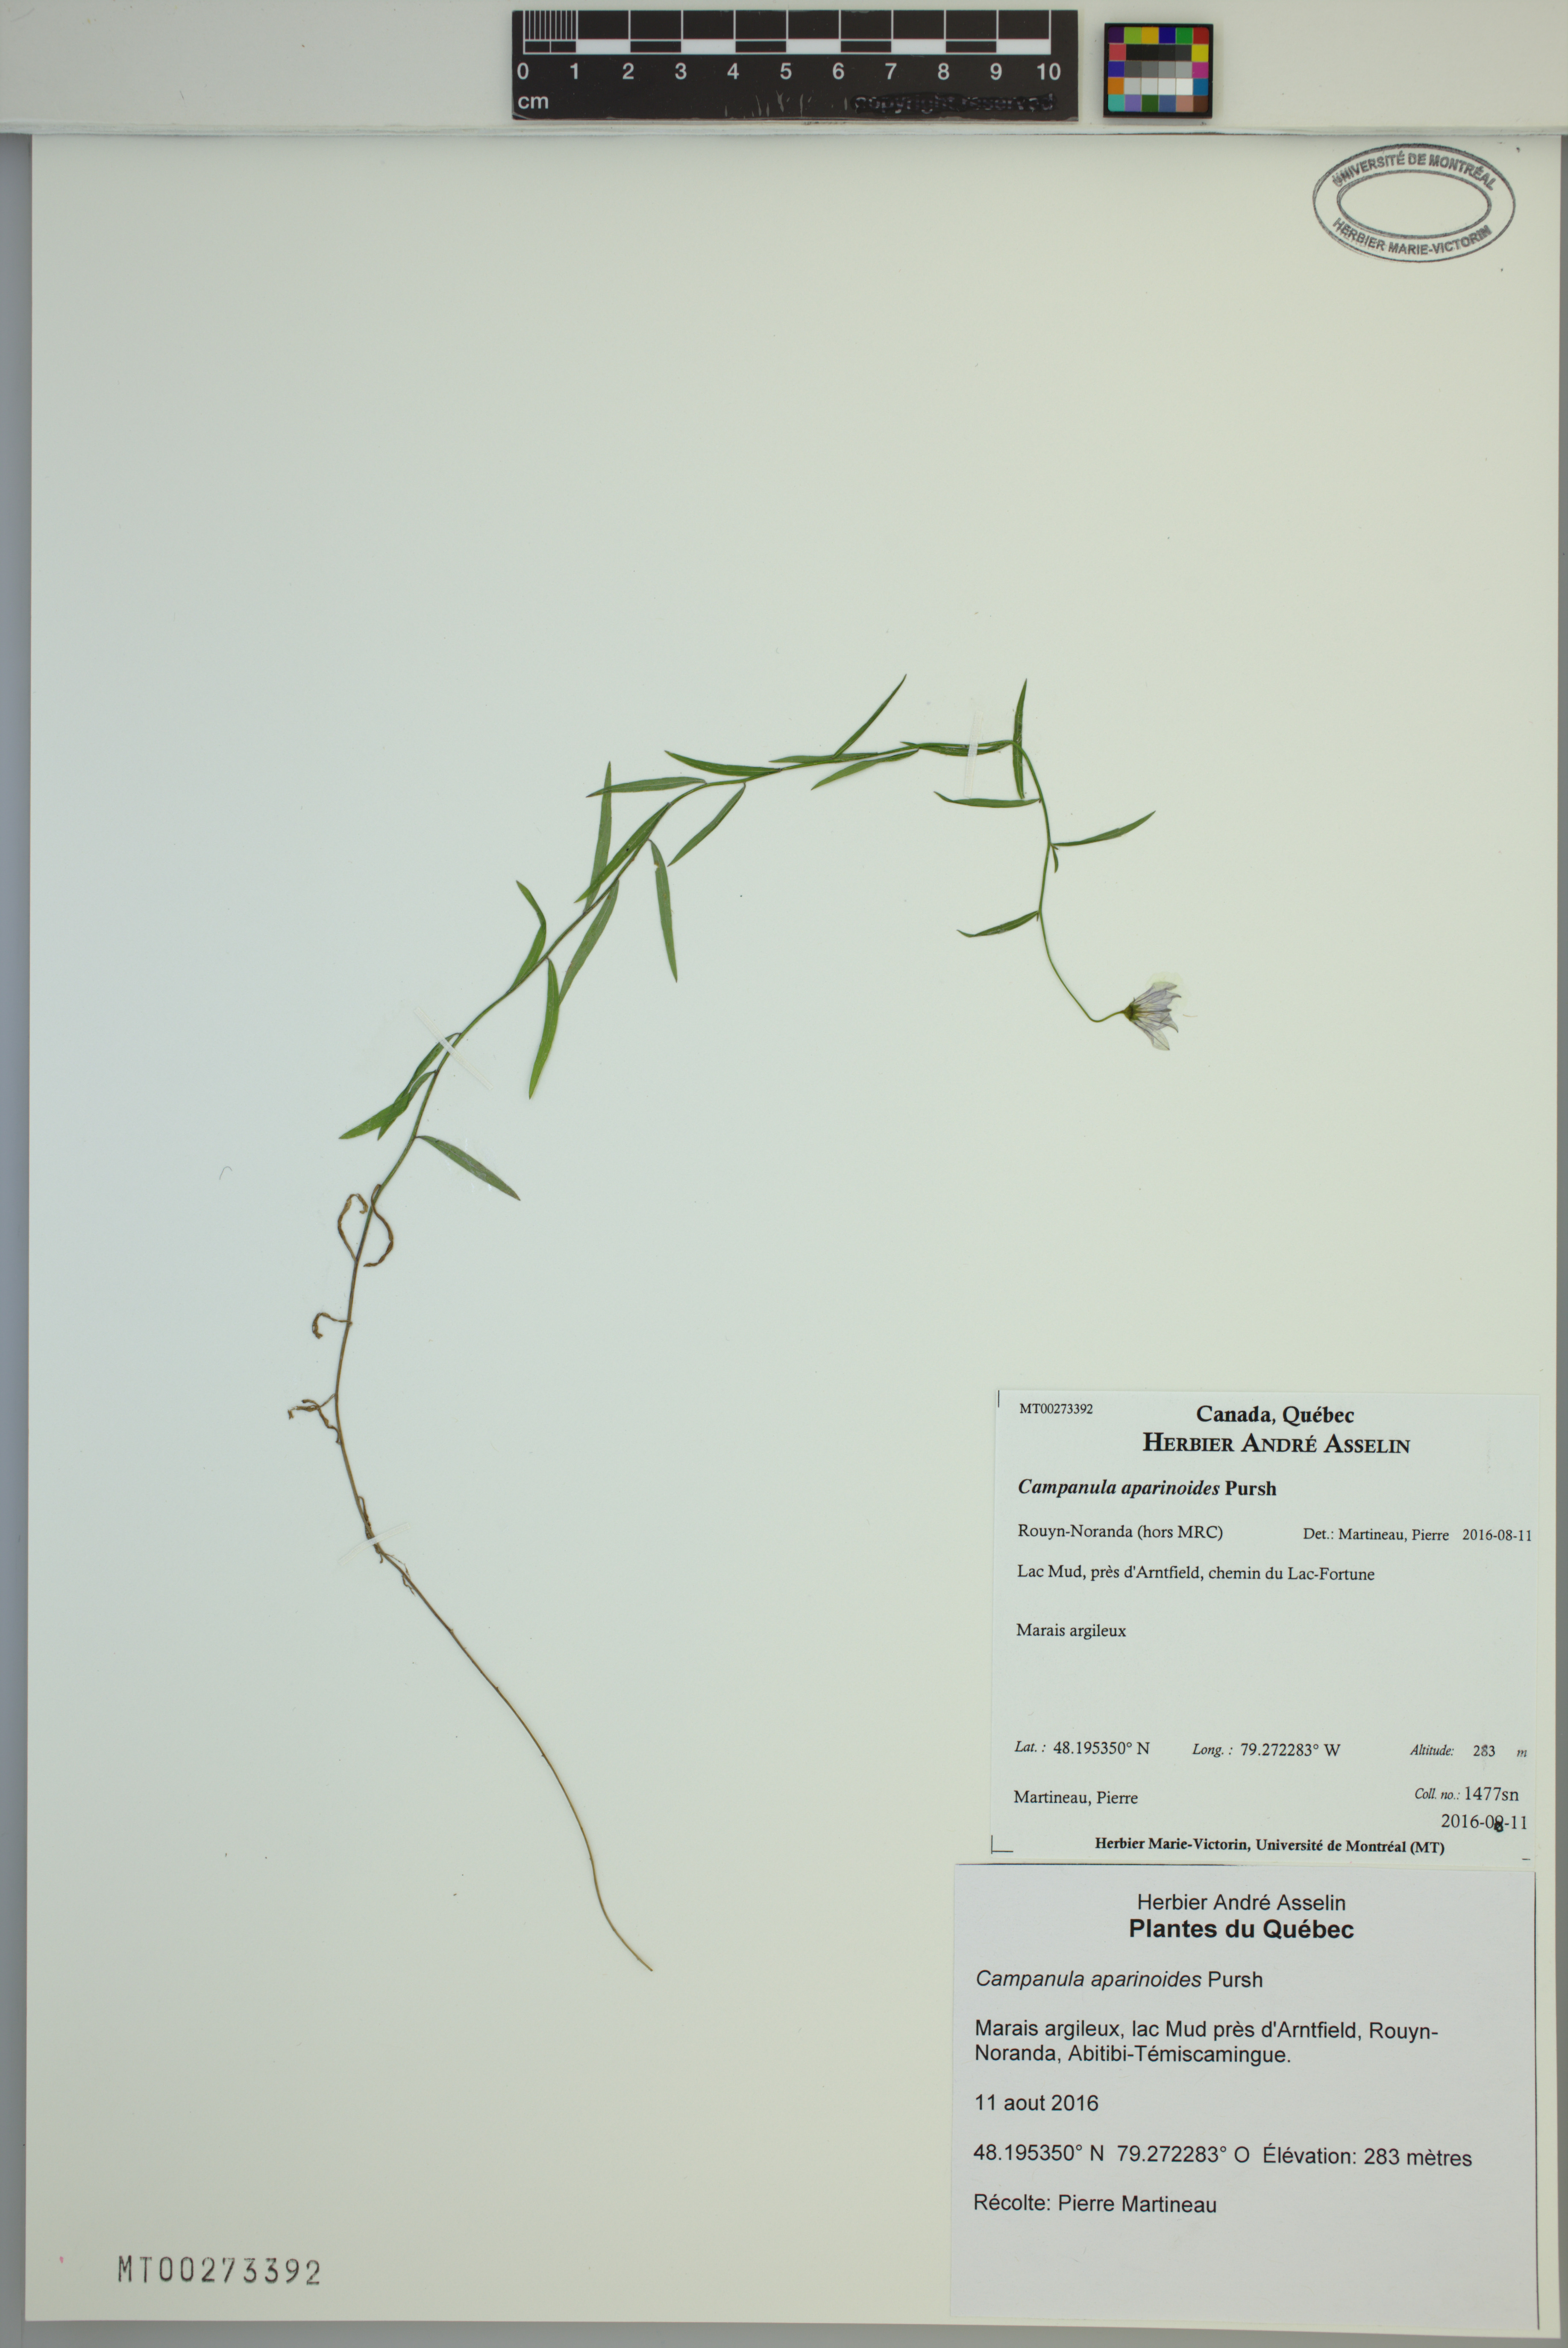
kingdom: Plantae
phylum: Tracheophyta
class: Magnoliopsida
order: Asterales
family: Campanulaceae
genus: Palustricodon
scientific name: Palustricodon aparinoides
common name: Bedstraw bellflower
